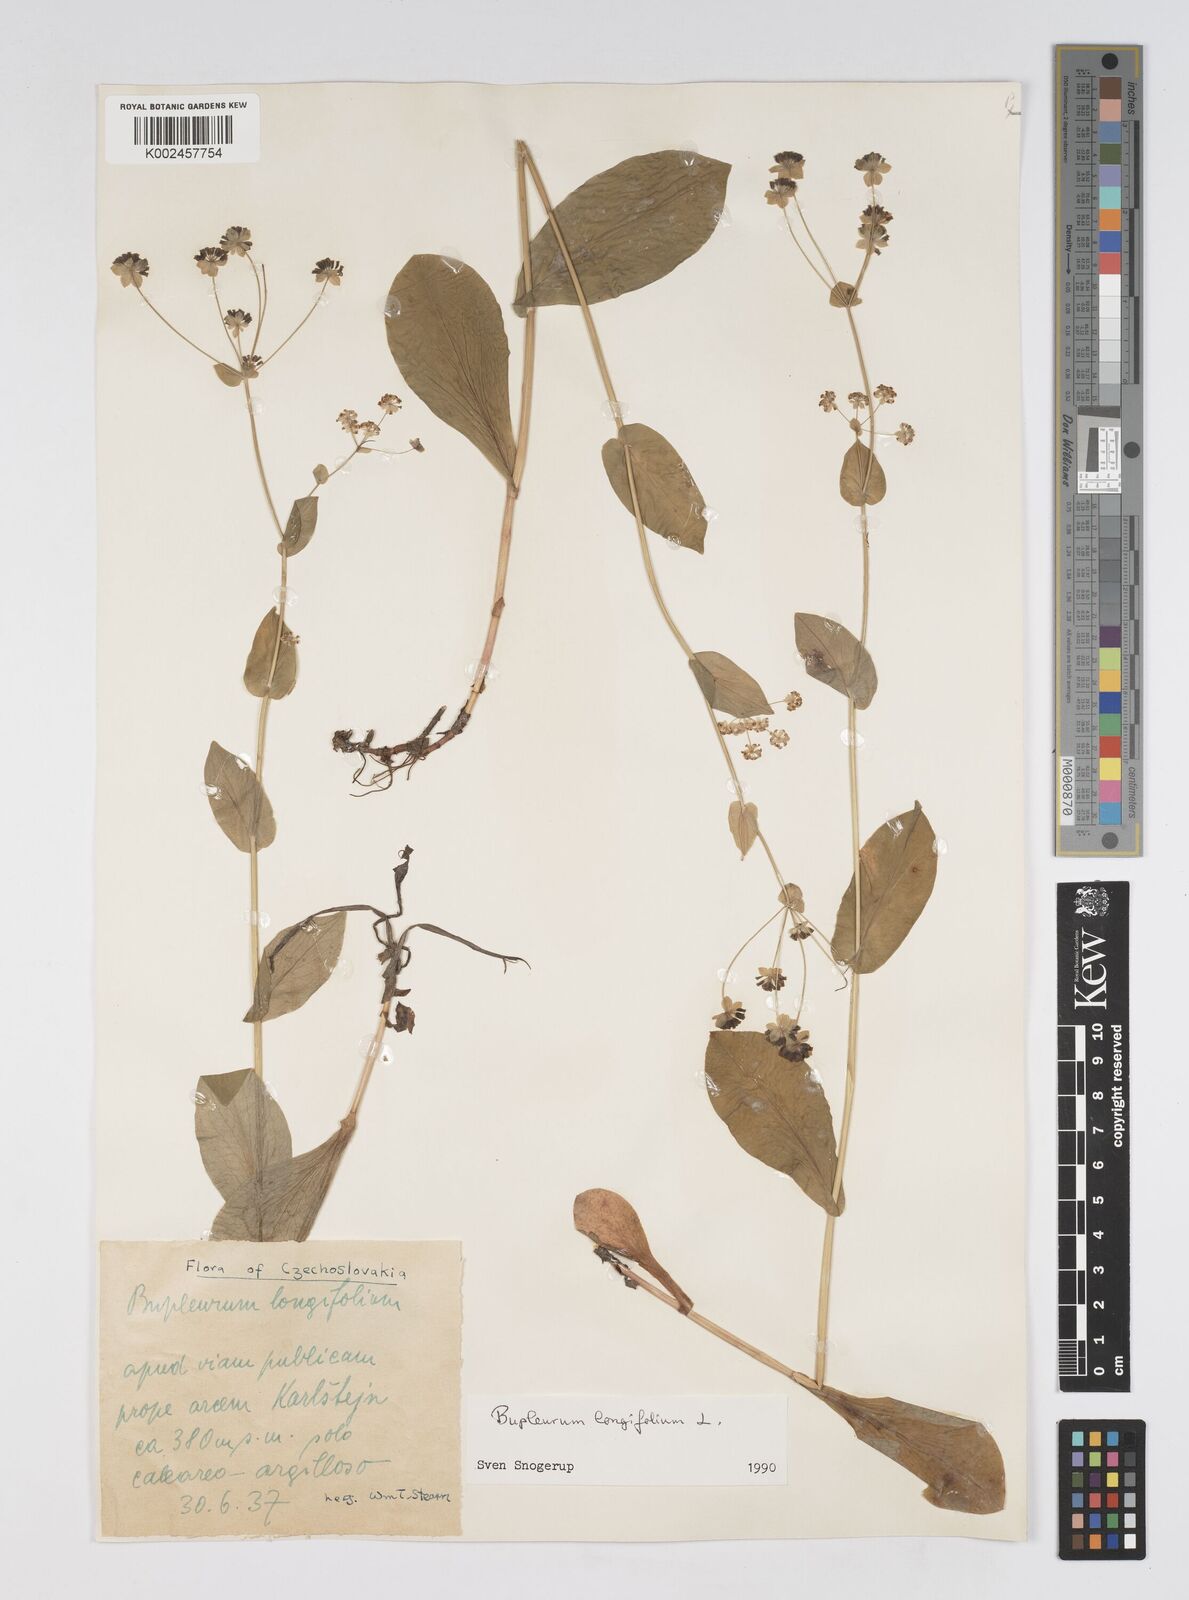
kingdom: Plantae
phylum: Tracheophyta
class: Magnoliopsida
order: Apiales
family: Apiaceae
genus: Bupleurum
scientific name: Bupleurum longifolium
